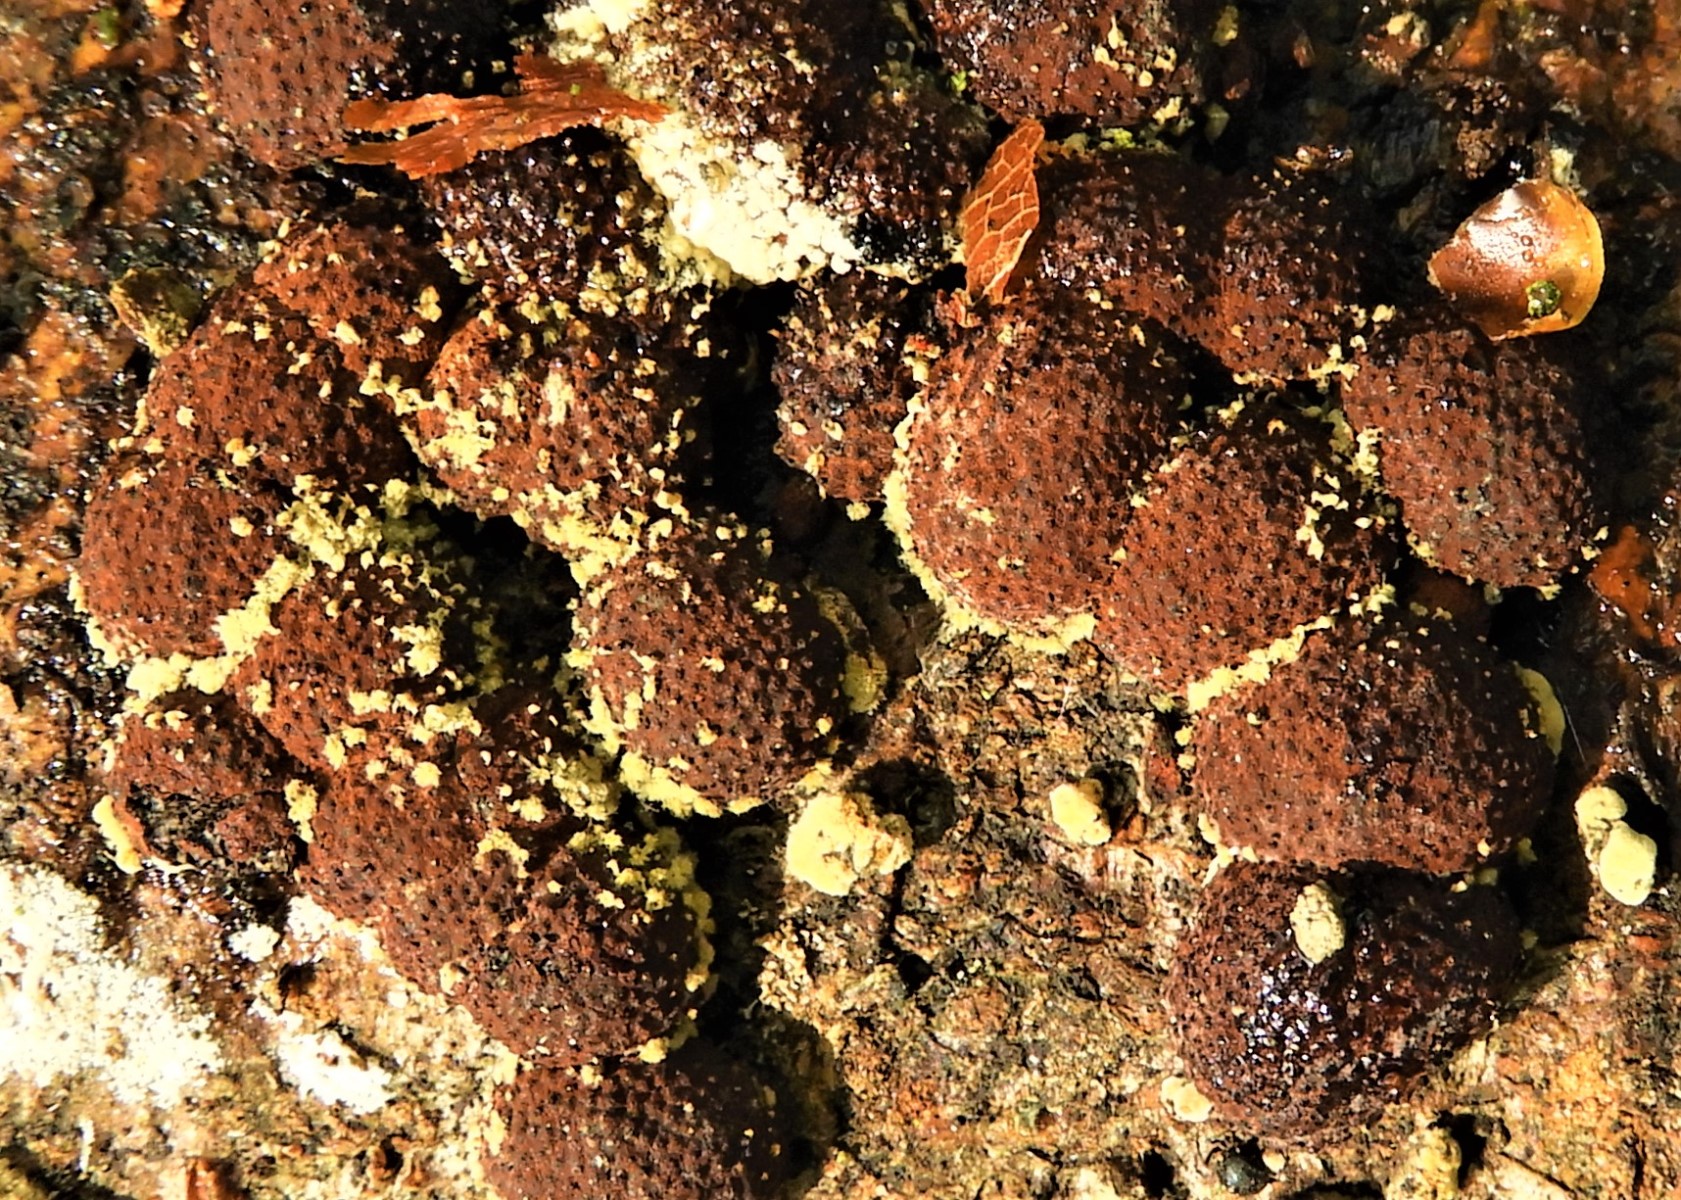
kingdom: Fungi
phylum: Ascomycota
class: Sordariomycetes
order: Xylariales
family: Hypoxylaceae
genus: Hypoxylon
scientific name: Hypoxylon fragiforme
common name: kuljordbær
